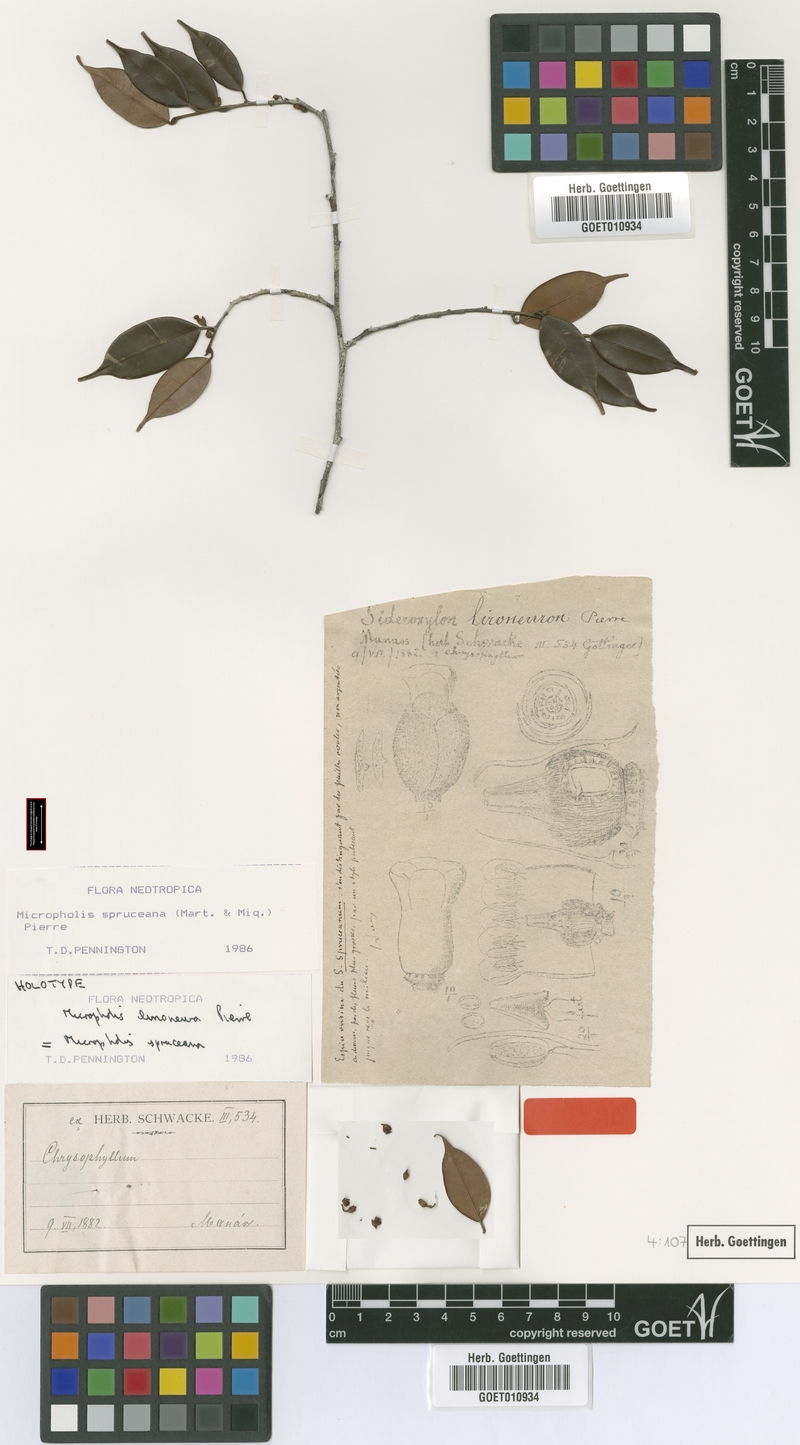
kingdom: Plantae
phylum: Tracheophyta
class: Magnoliopsida
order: Ericales
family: Sapotaceae
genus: Micropholis
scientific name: Micropholis humboldtiana
